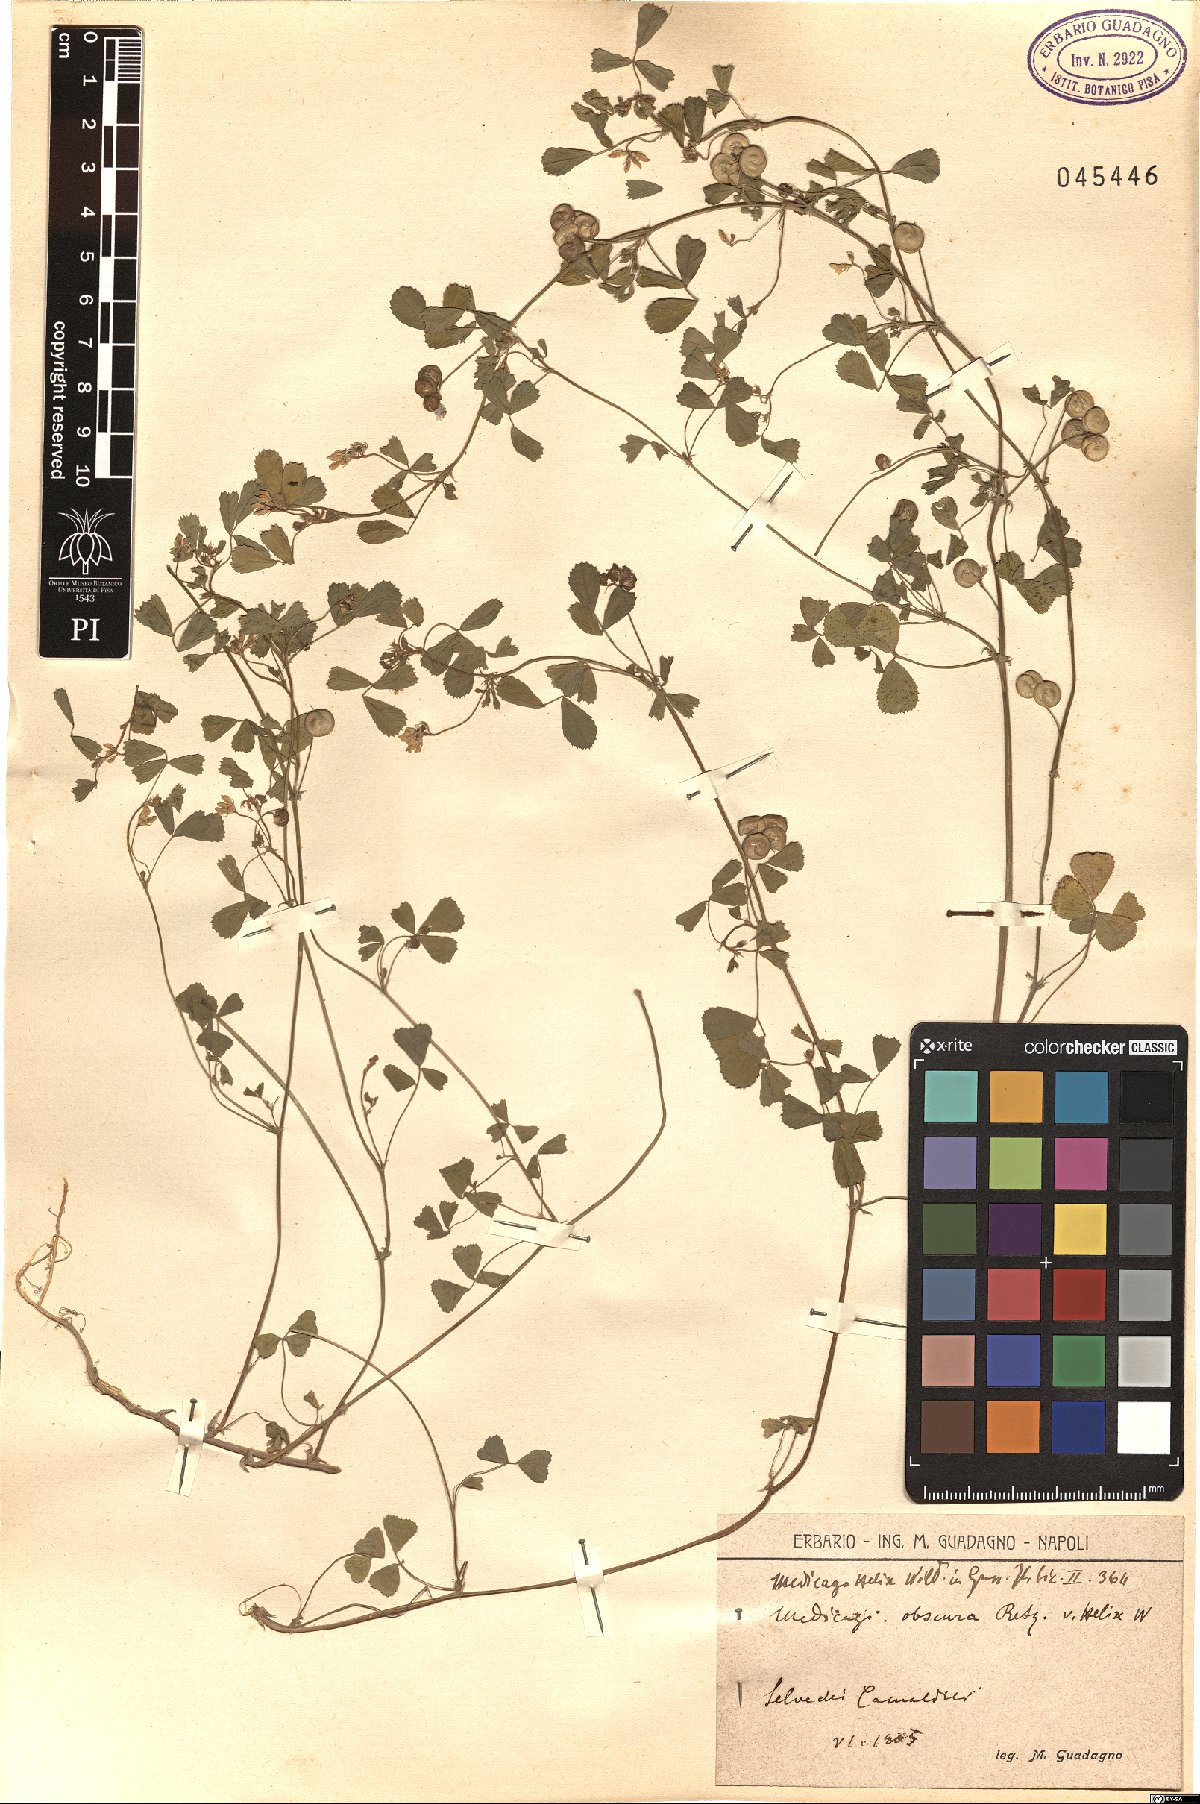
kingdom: Plantae
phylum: Tracheophyta
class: Magnoliopsida
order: Fabales
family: Fabaceae
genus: Medicago
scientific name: Medicago tornata
